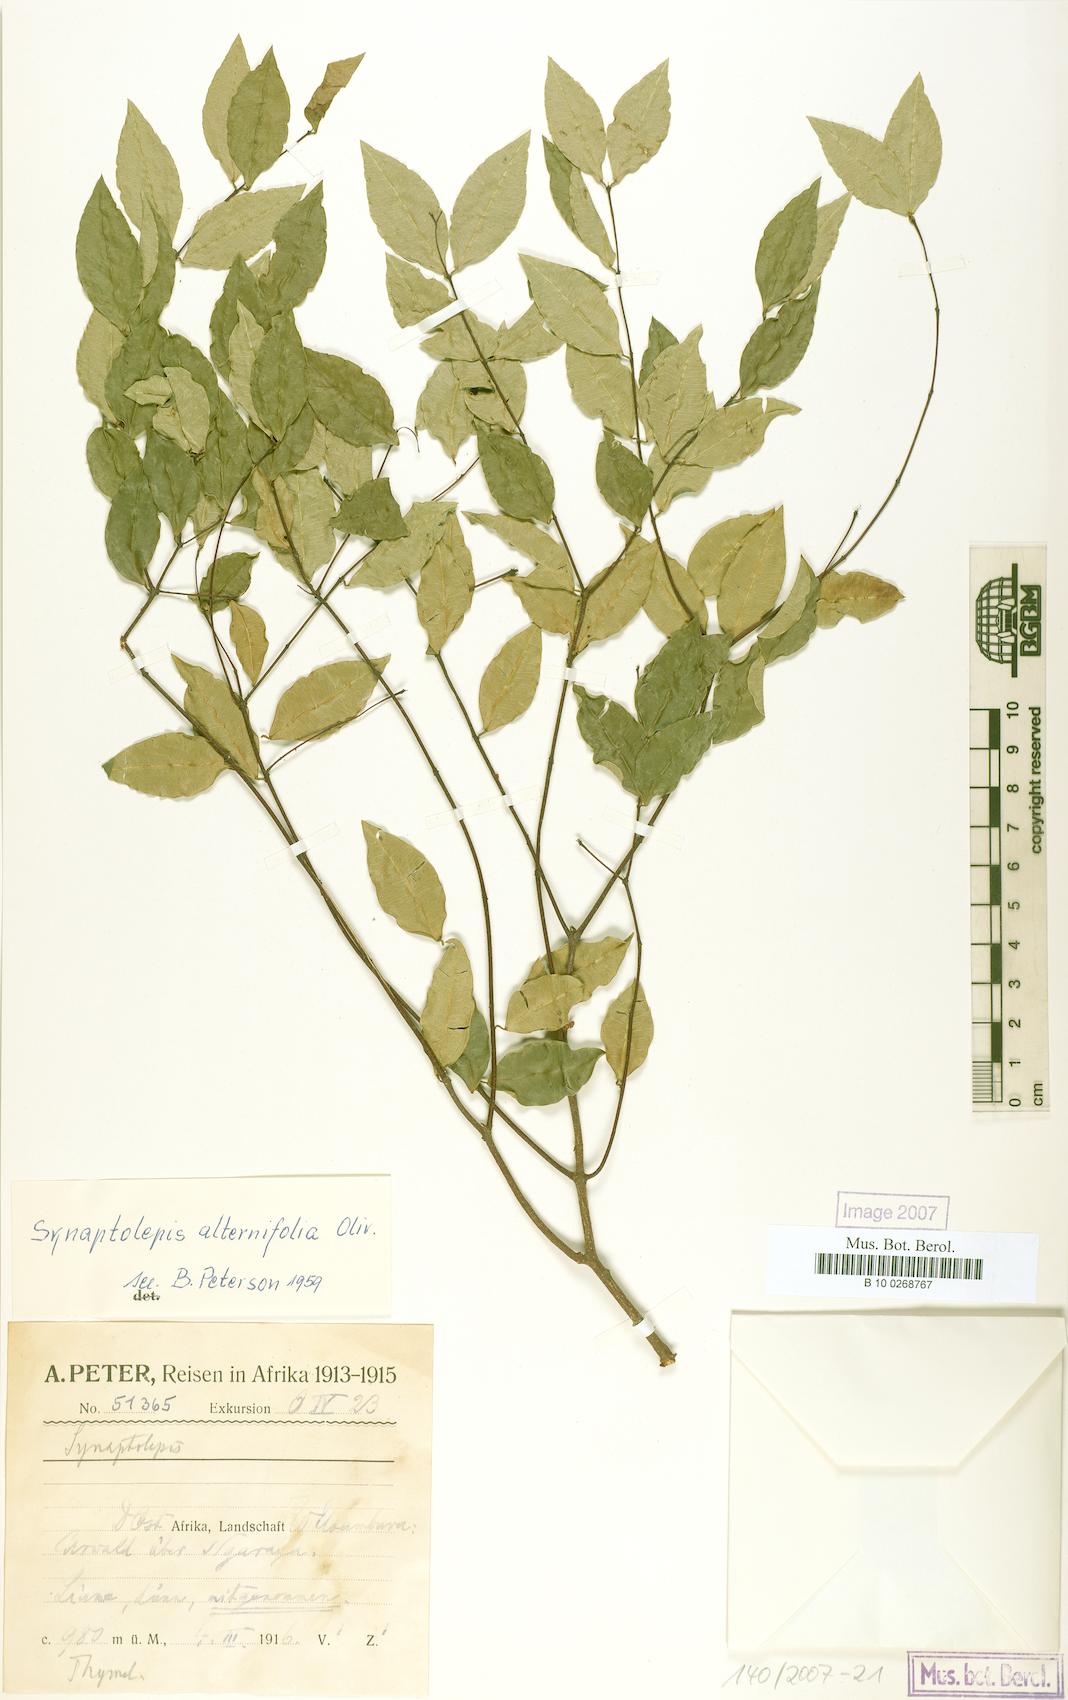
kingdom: Plantae
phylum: Tracheophyta
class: Magnoliopsida
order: Malvales
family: Thymelaeaceae
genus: Synaptolepis
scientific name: Synaptolepis alternifolia
